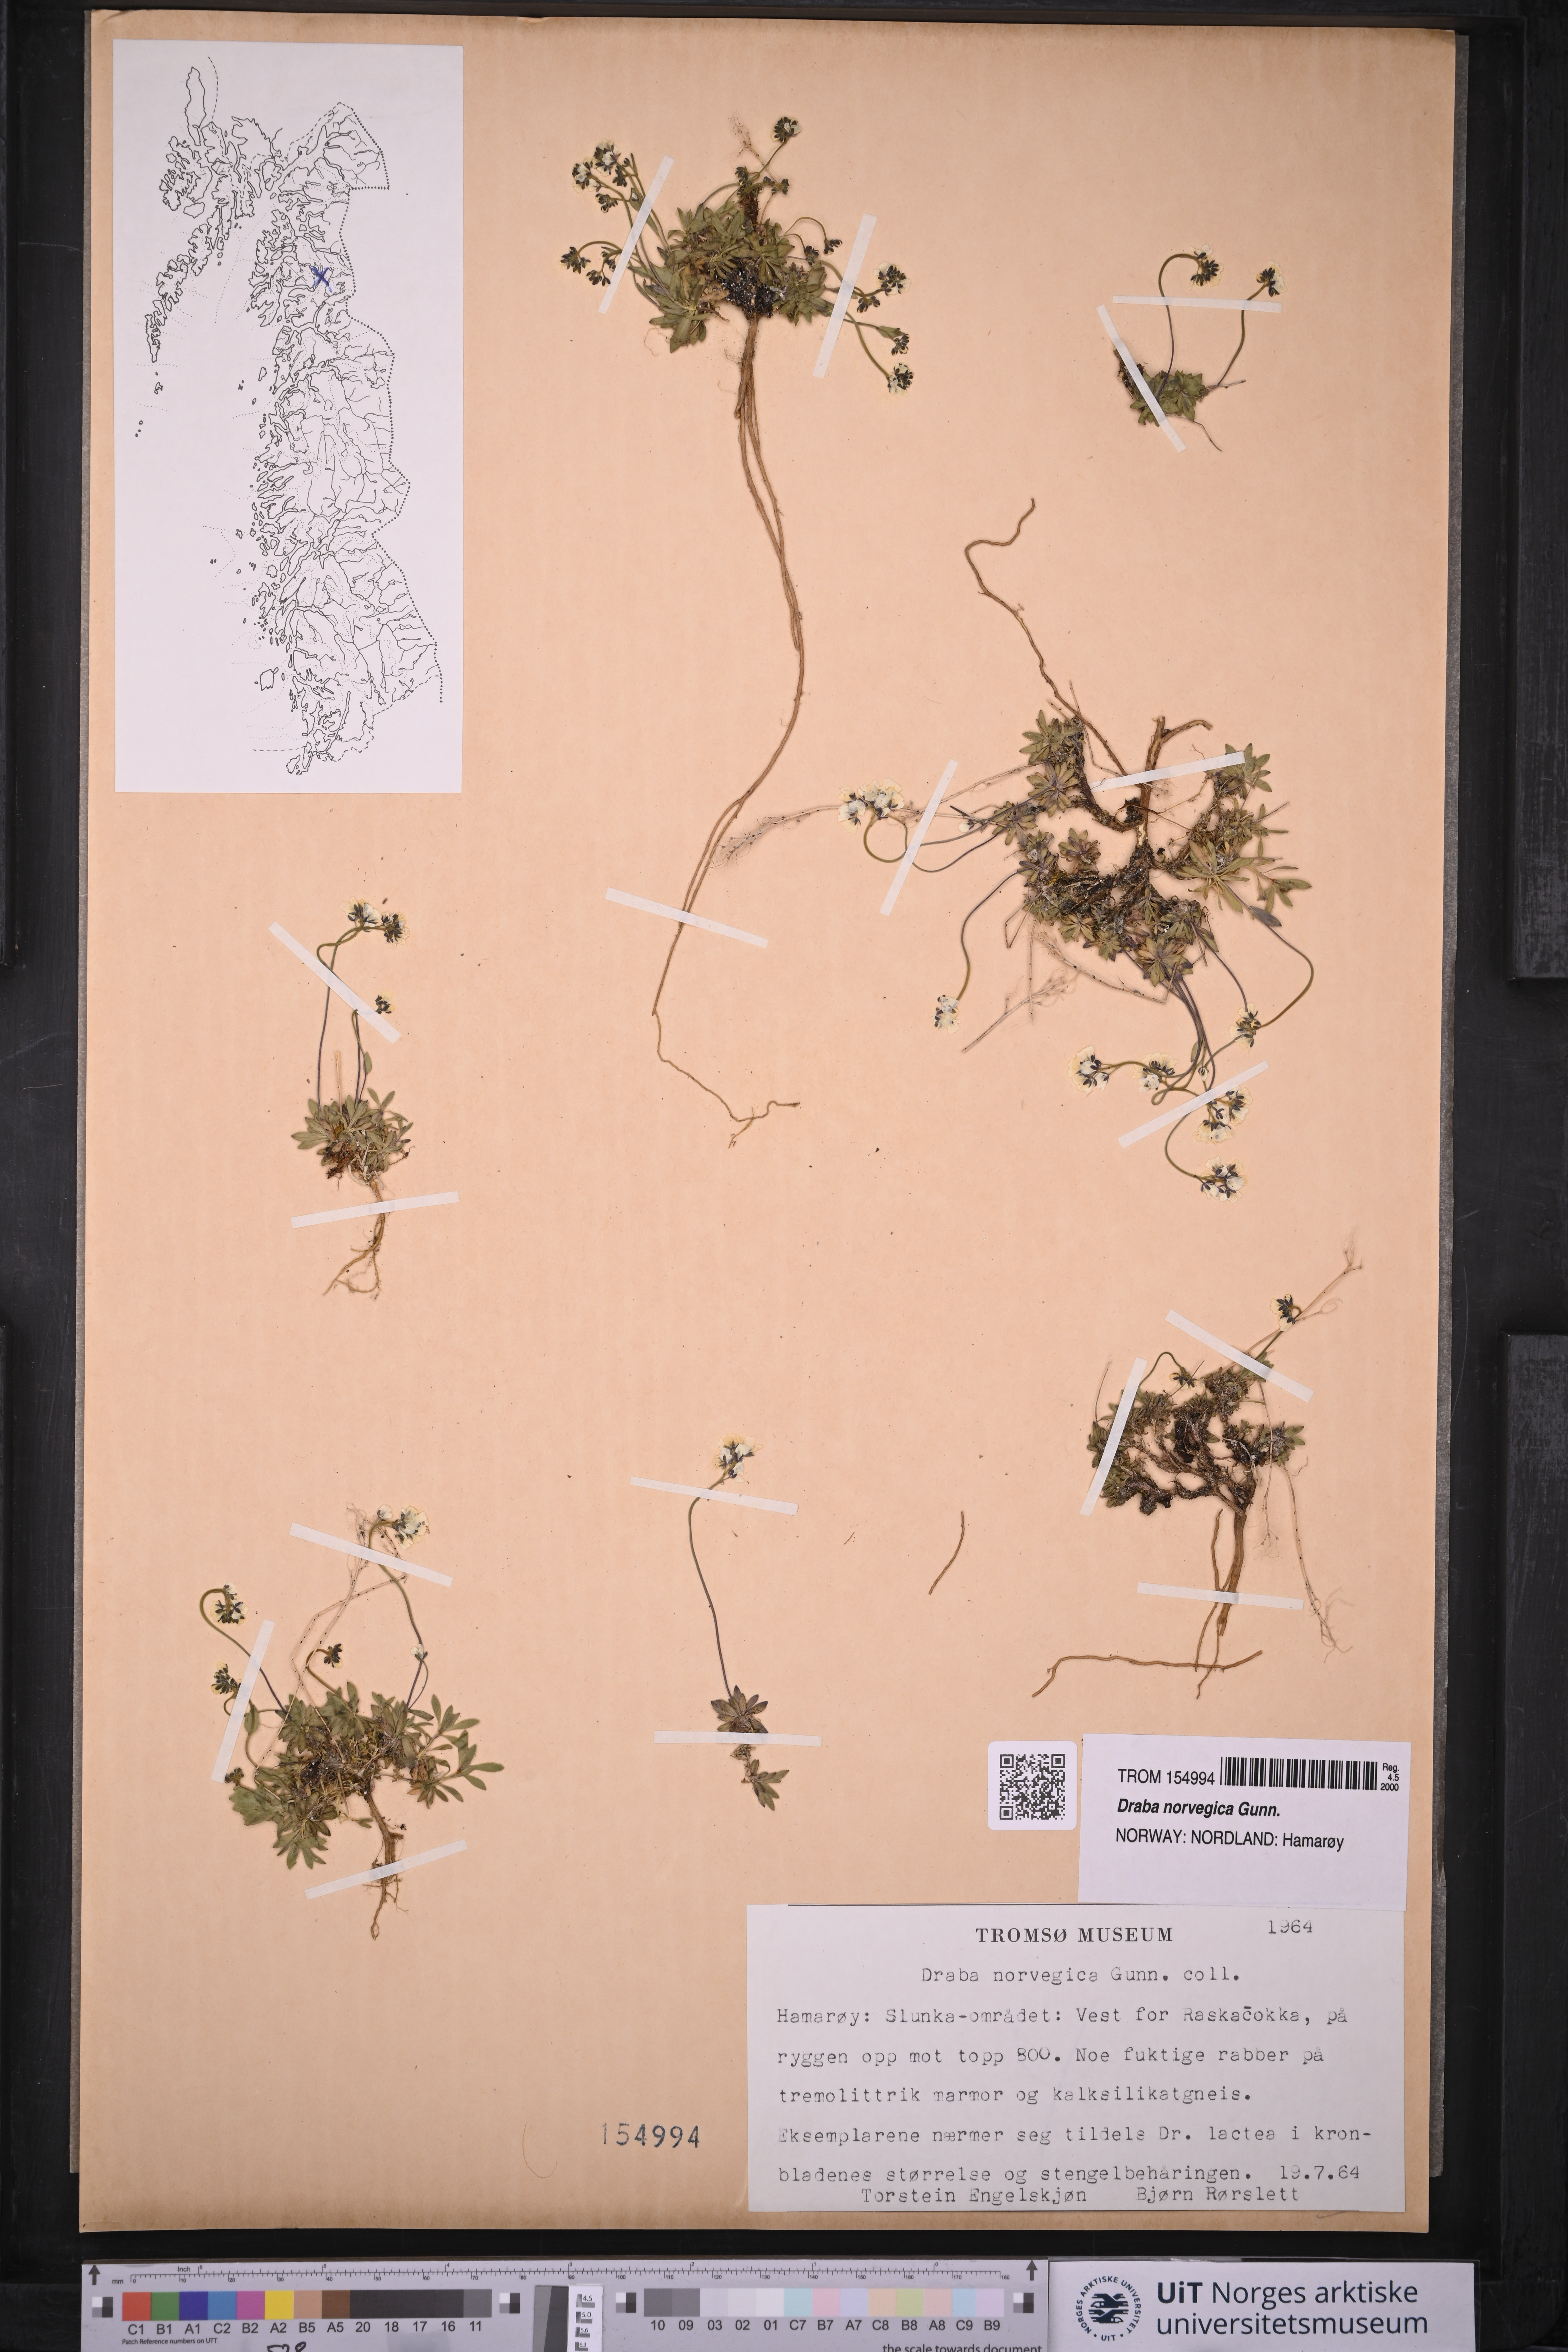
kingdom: Plantae
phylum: Tracheophyta
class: Magnoliopsida
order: Brassicales
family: Brassicaceae
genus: Draba
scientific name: Draba norvegica
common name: Rock whitlowgrass
